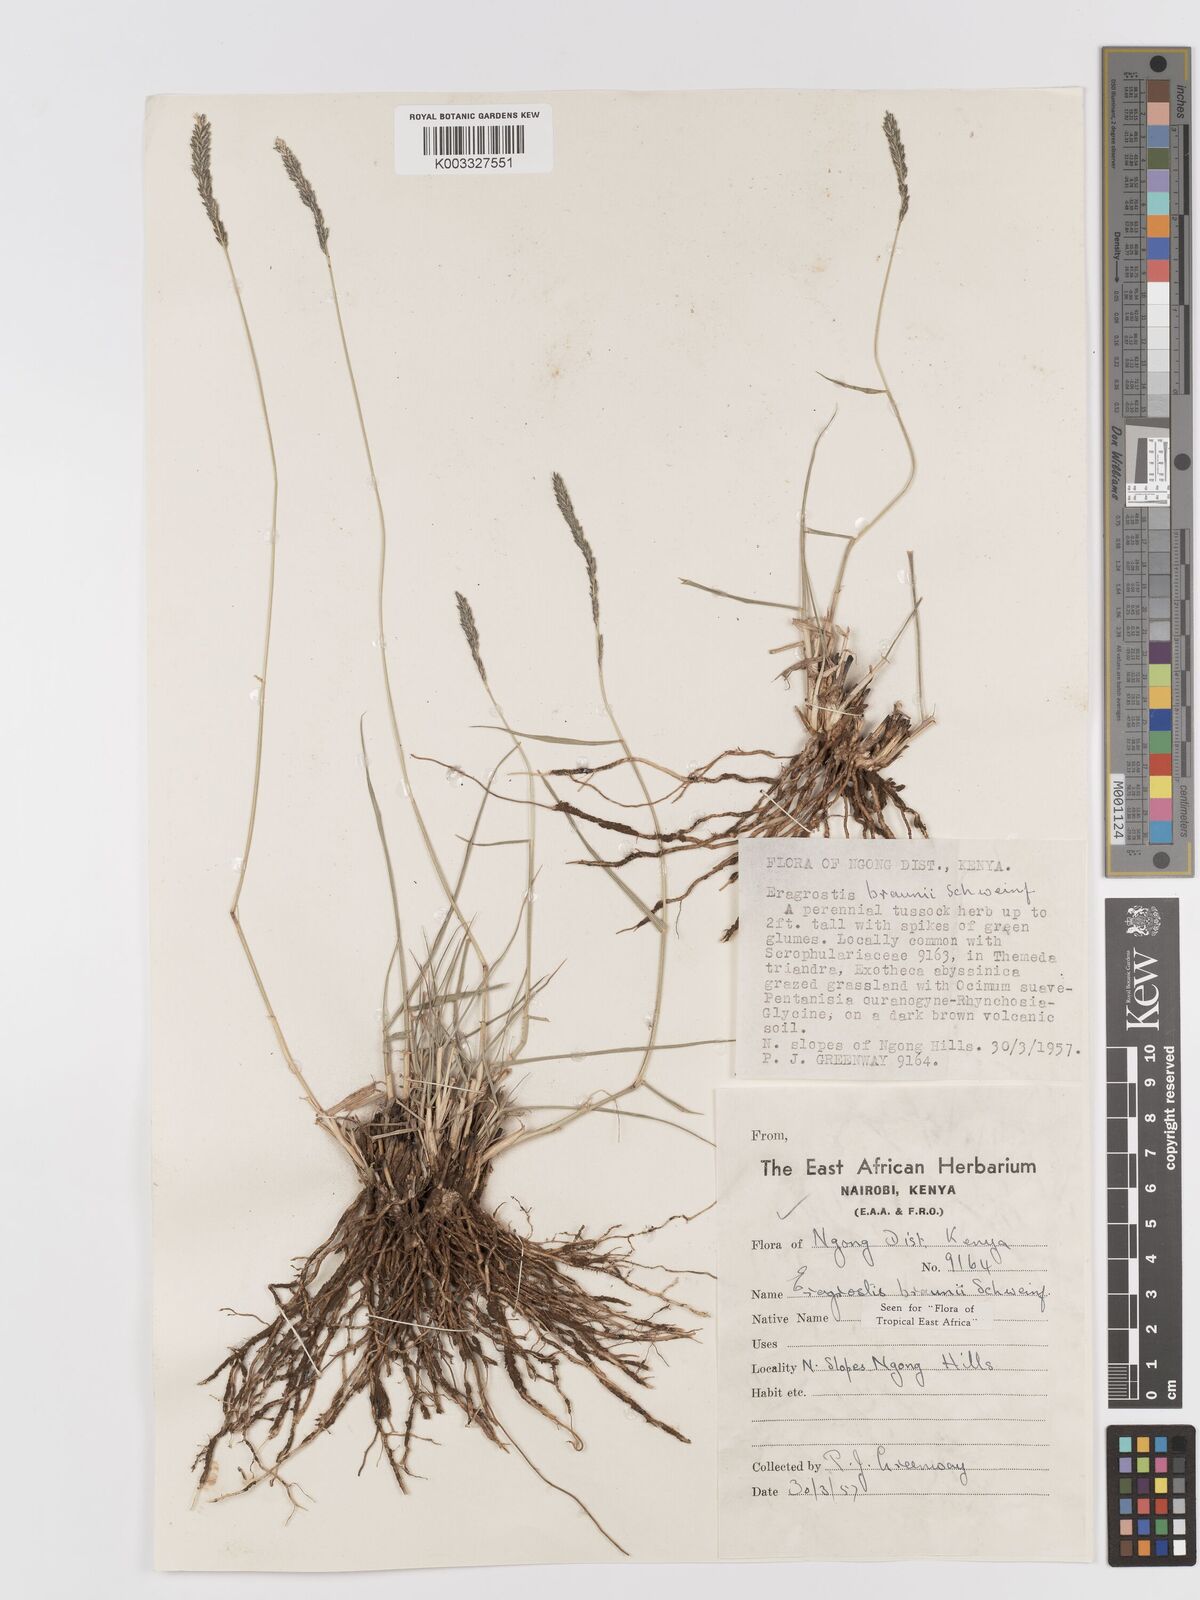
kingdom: Plantae
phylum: Tracheophyta
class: Liliopsida
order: Poales
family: Poaceae
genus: Eragrostis
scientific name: Eragrostis braunii
